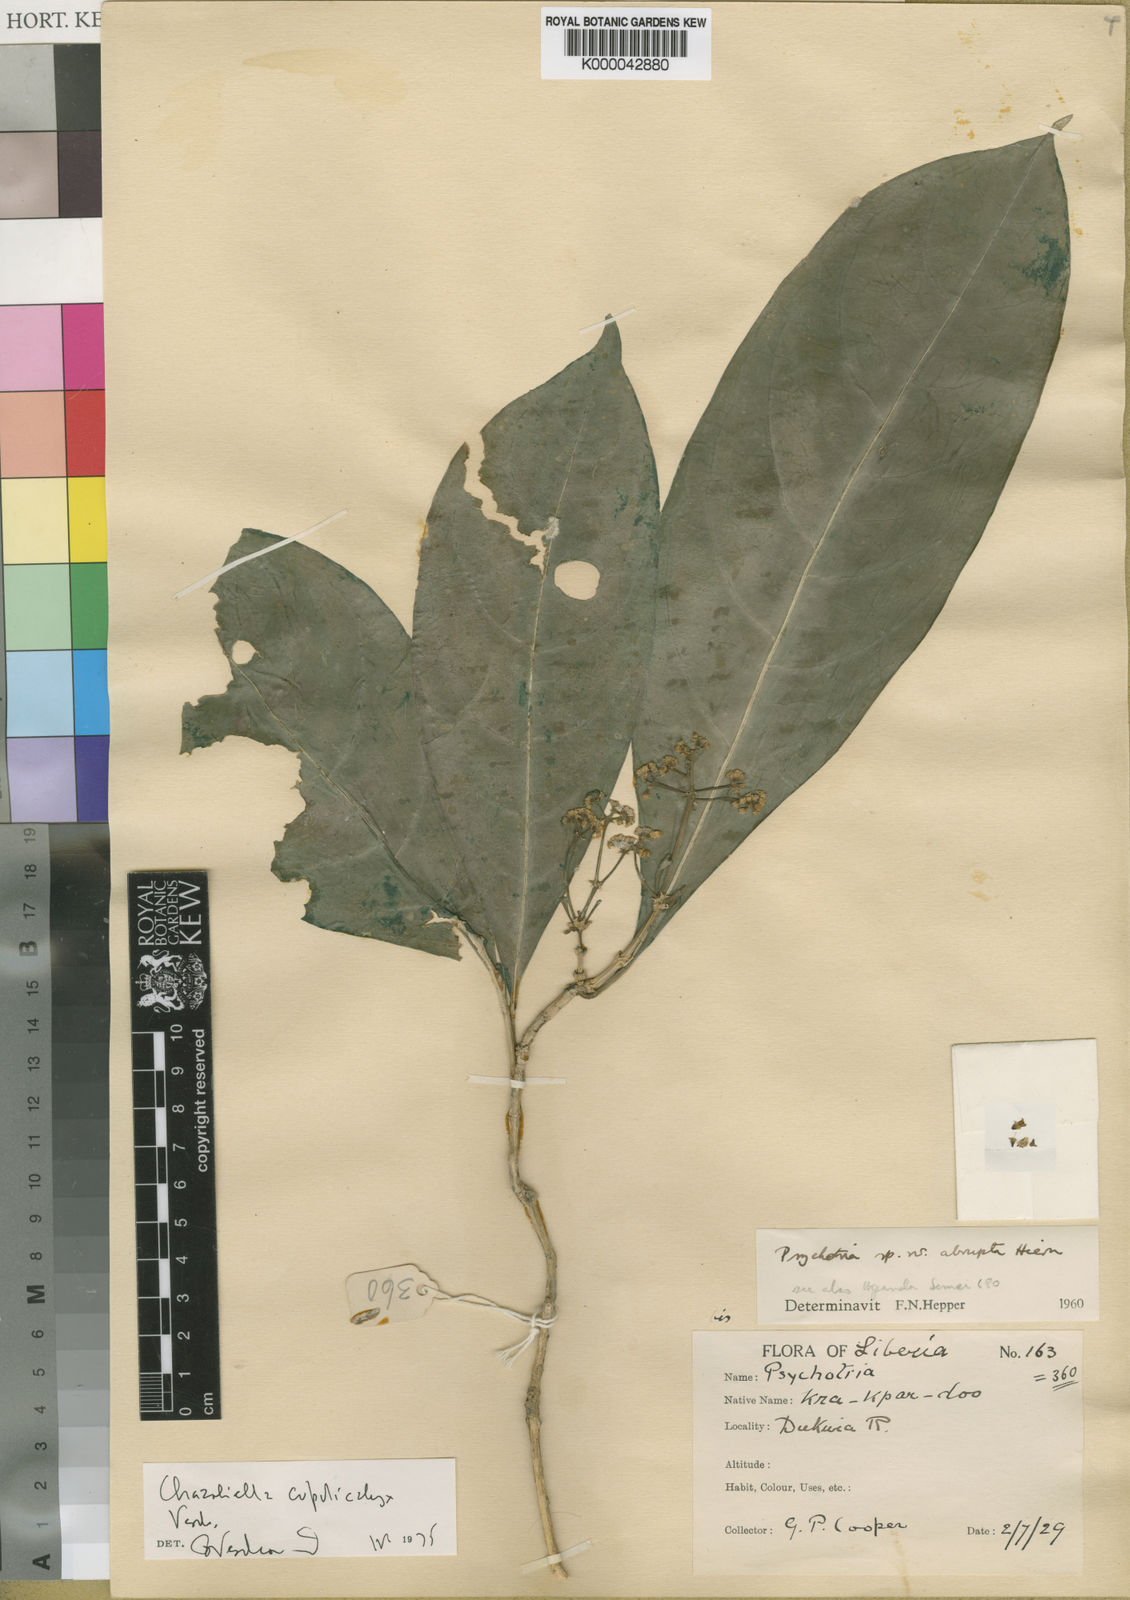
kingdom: Plantae
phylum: Tracheophyta
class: Magnoliopsida
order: Gentianales
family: Rubiaceae
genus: Eumachia
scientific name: Eumachia cupulicalyx
